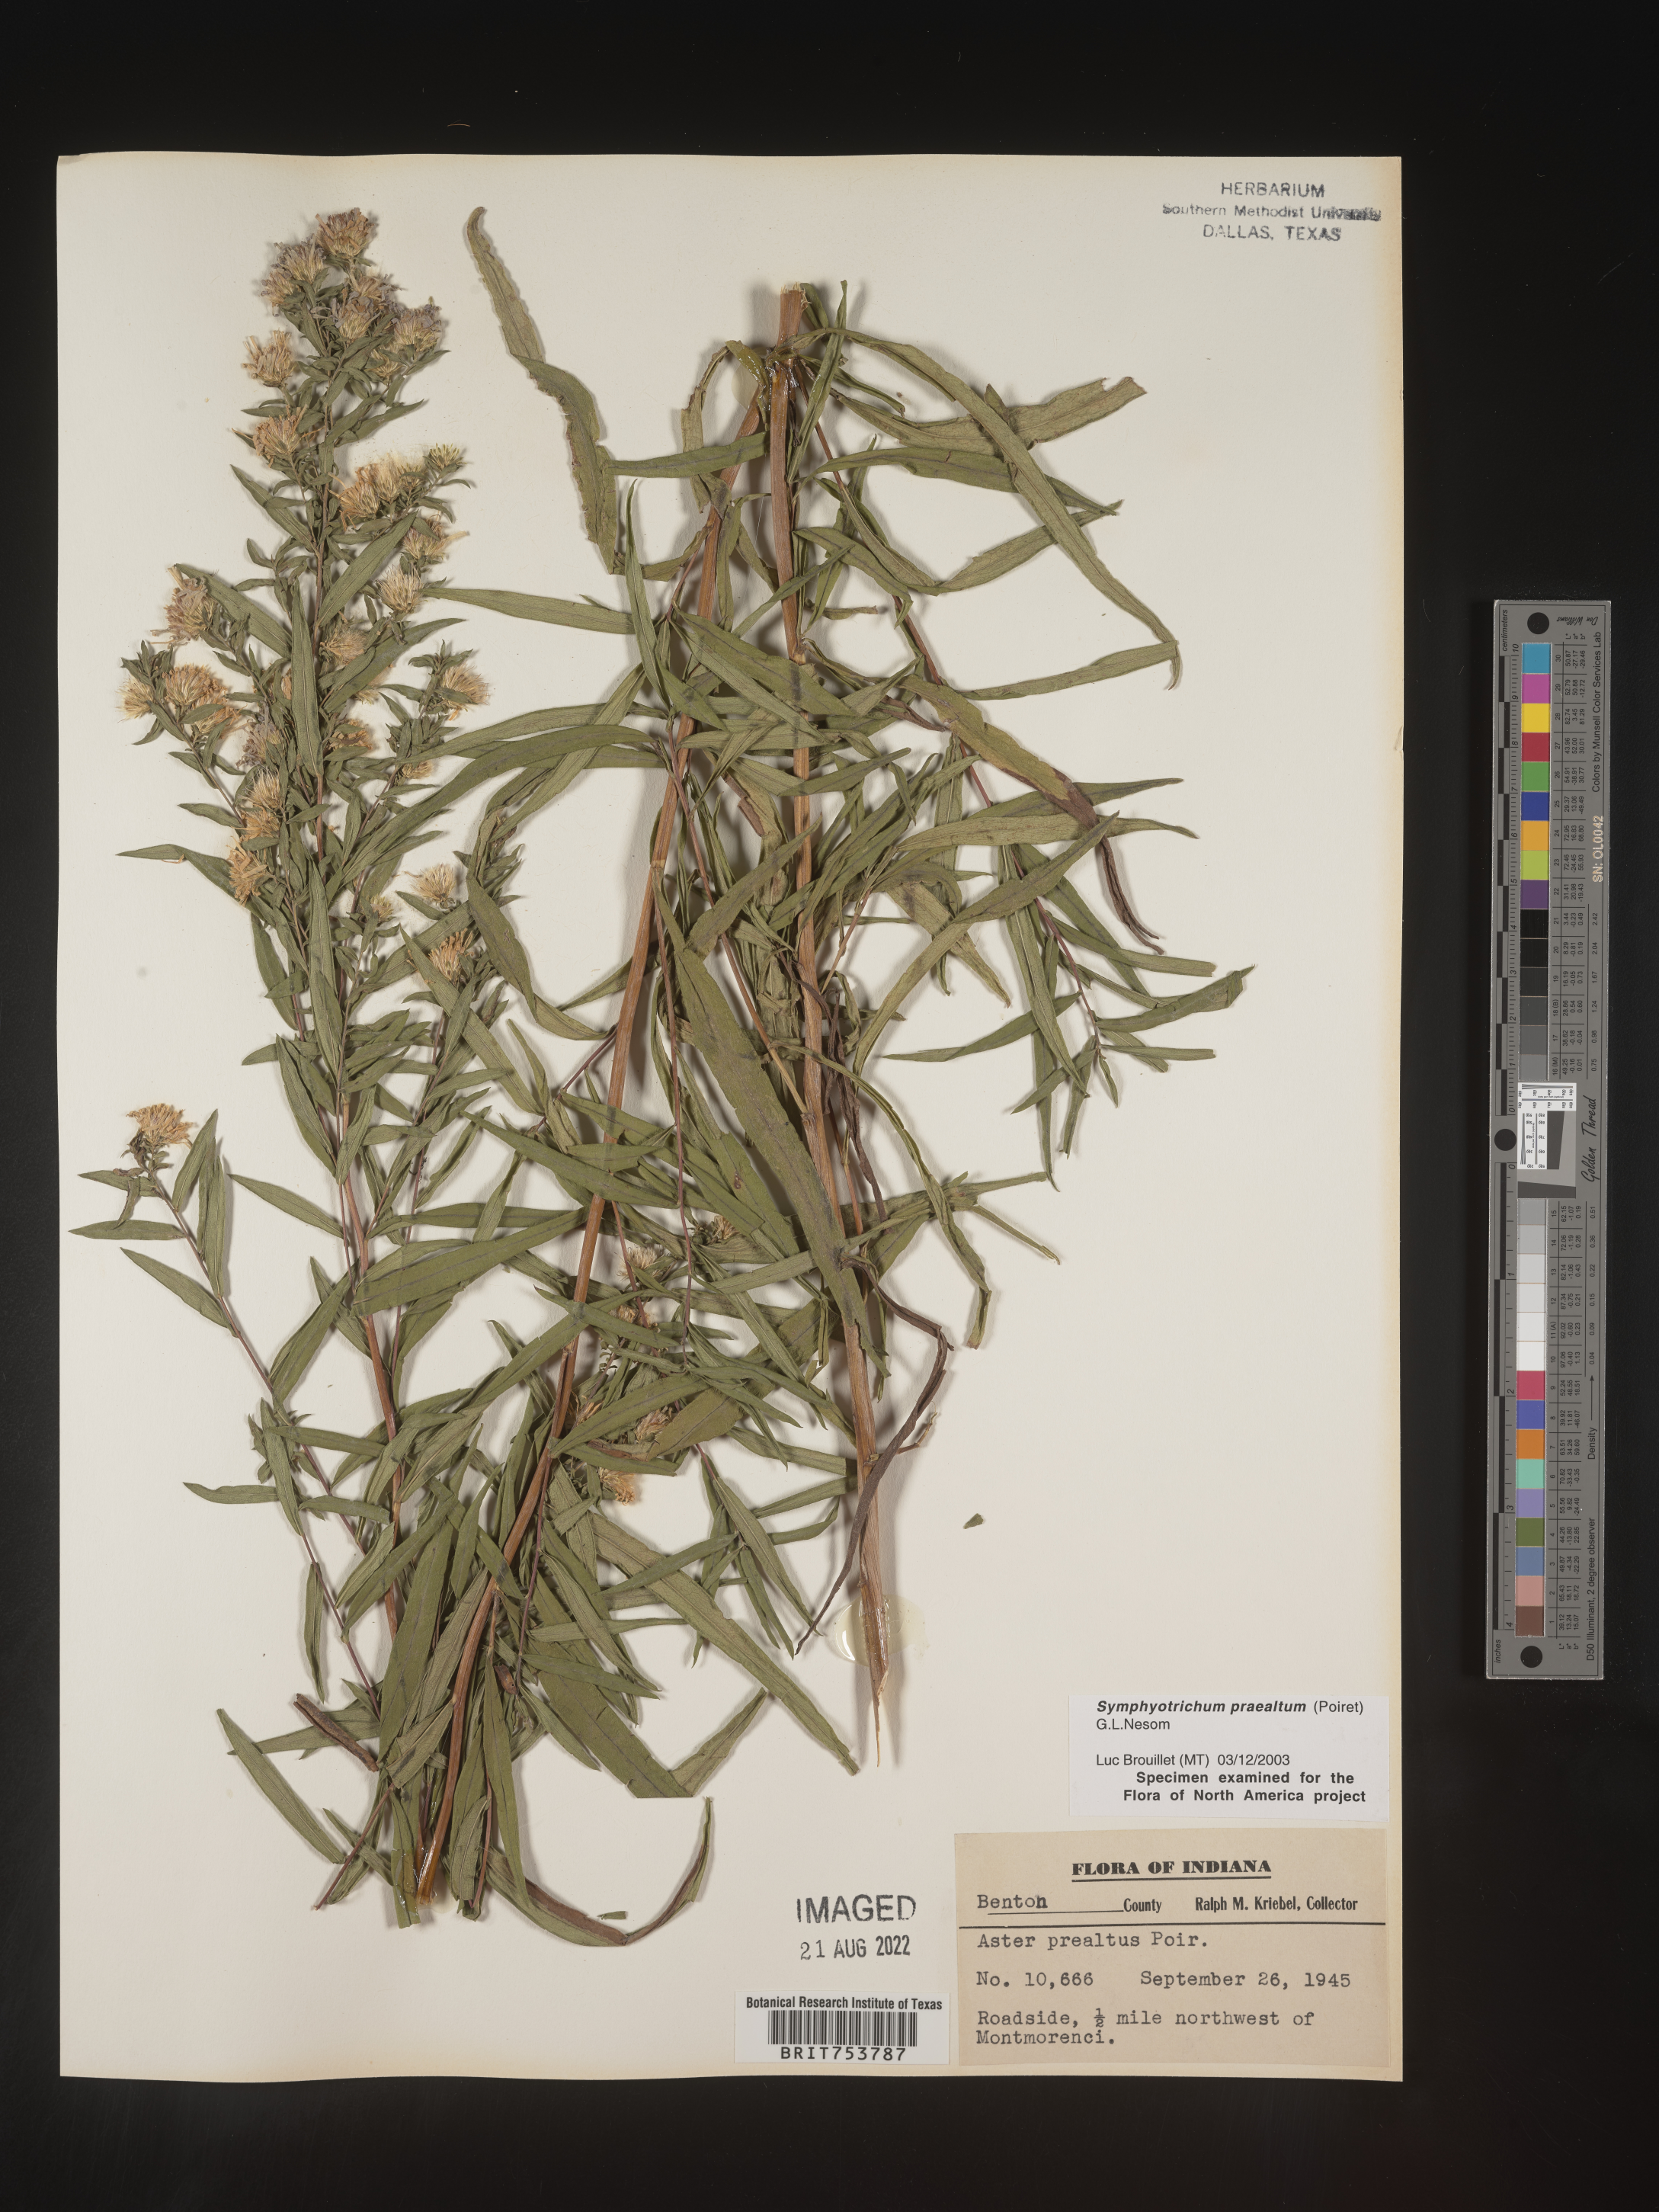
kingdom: Plantae
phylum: Tracheophyta
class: Magnoliopsida
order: Asterales
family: Asteraceae
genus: Symphyotrichum
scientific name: Symphyotrichum praealtum
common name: Willow aster
